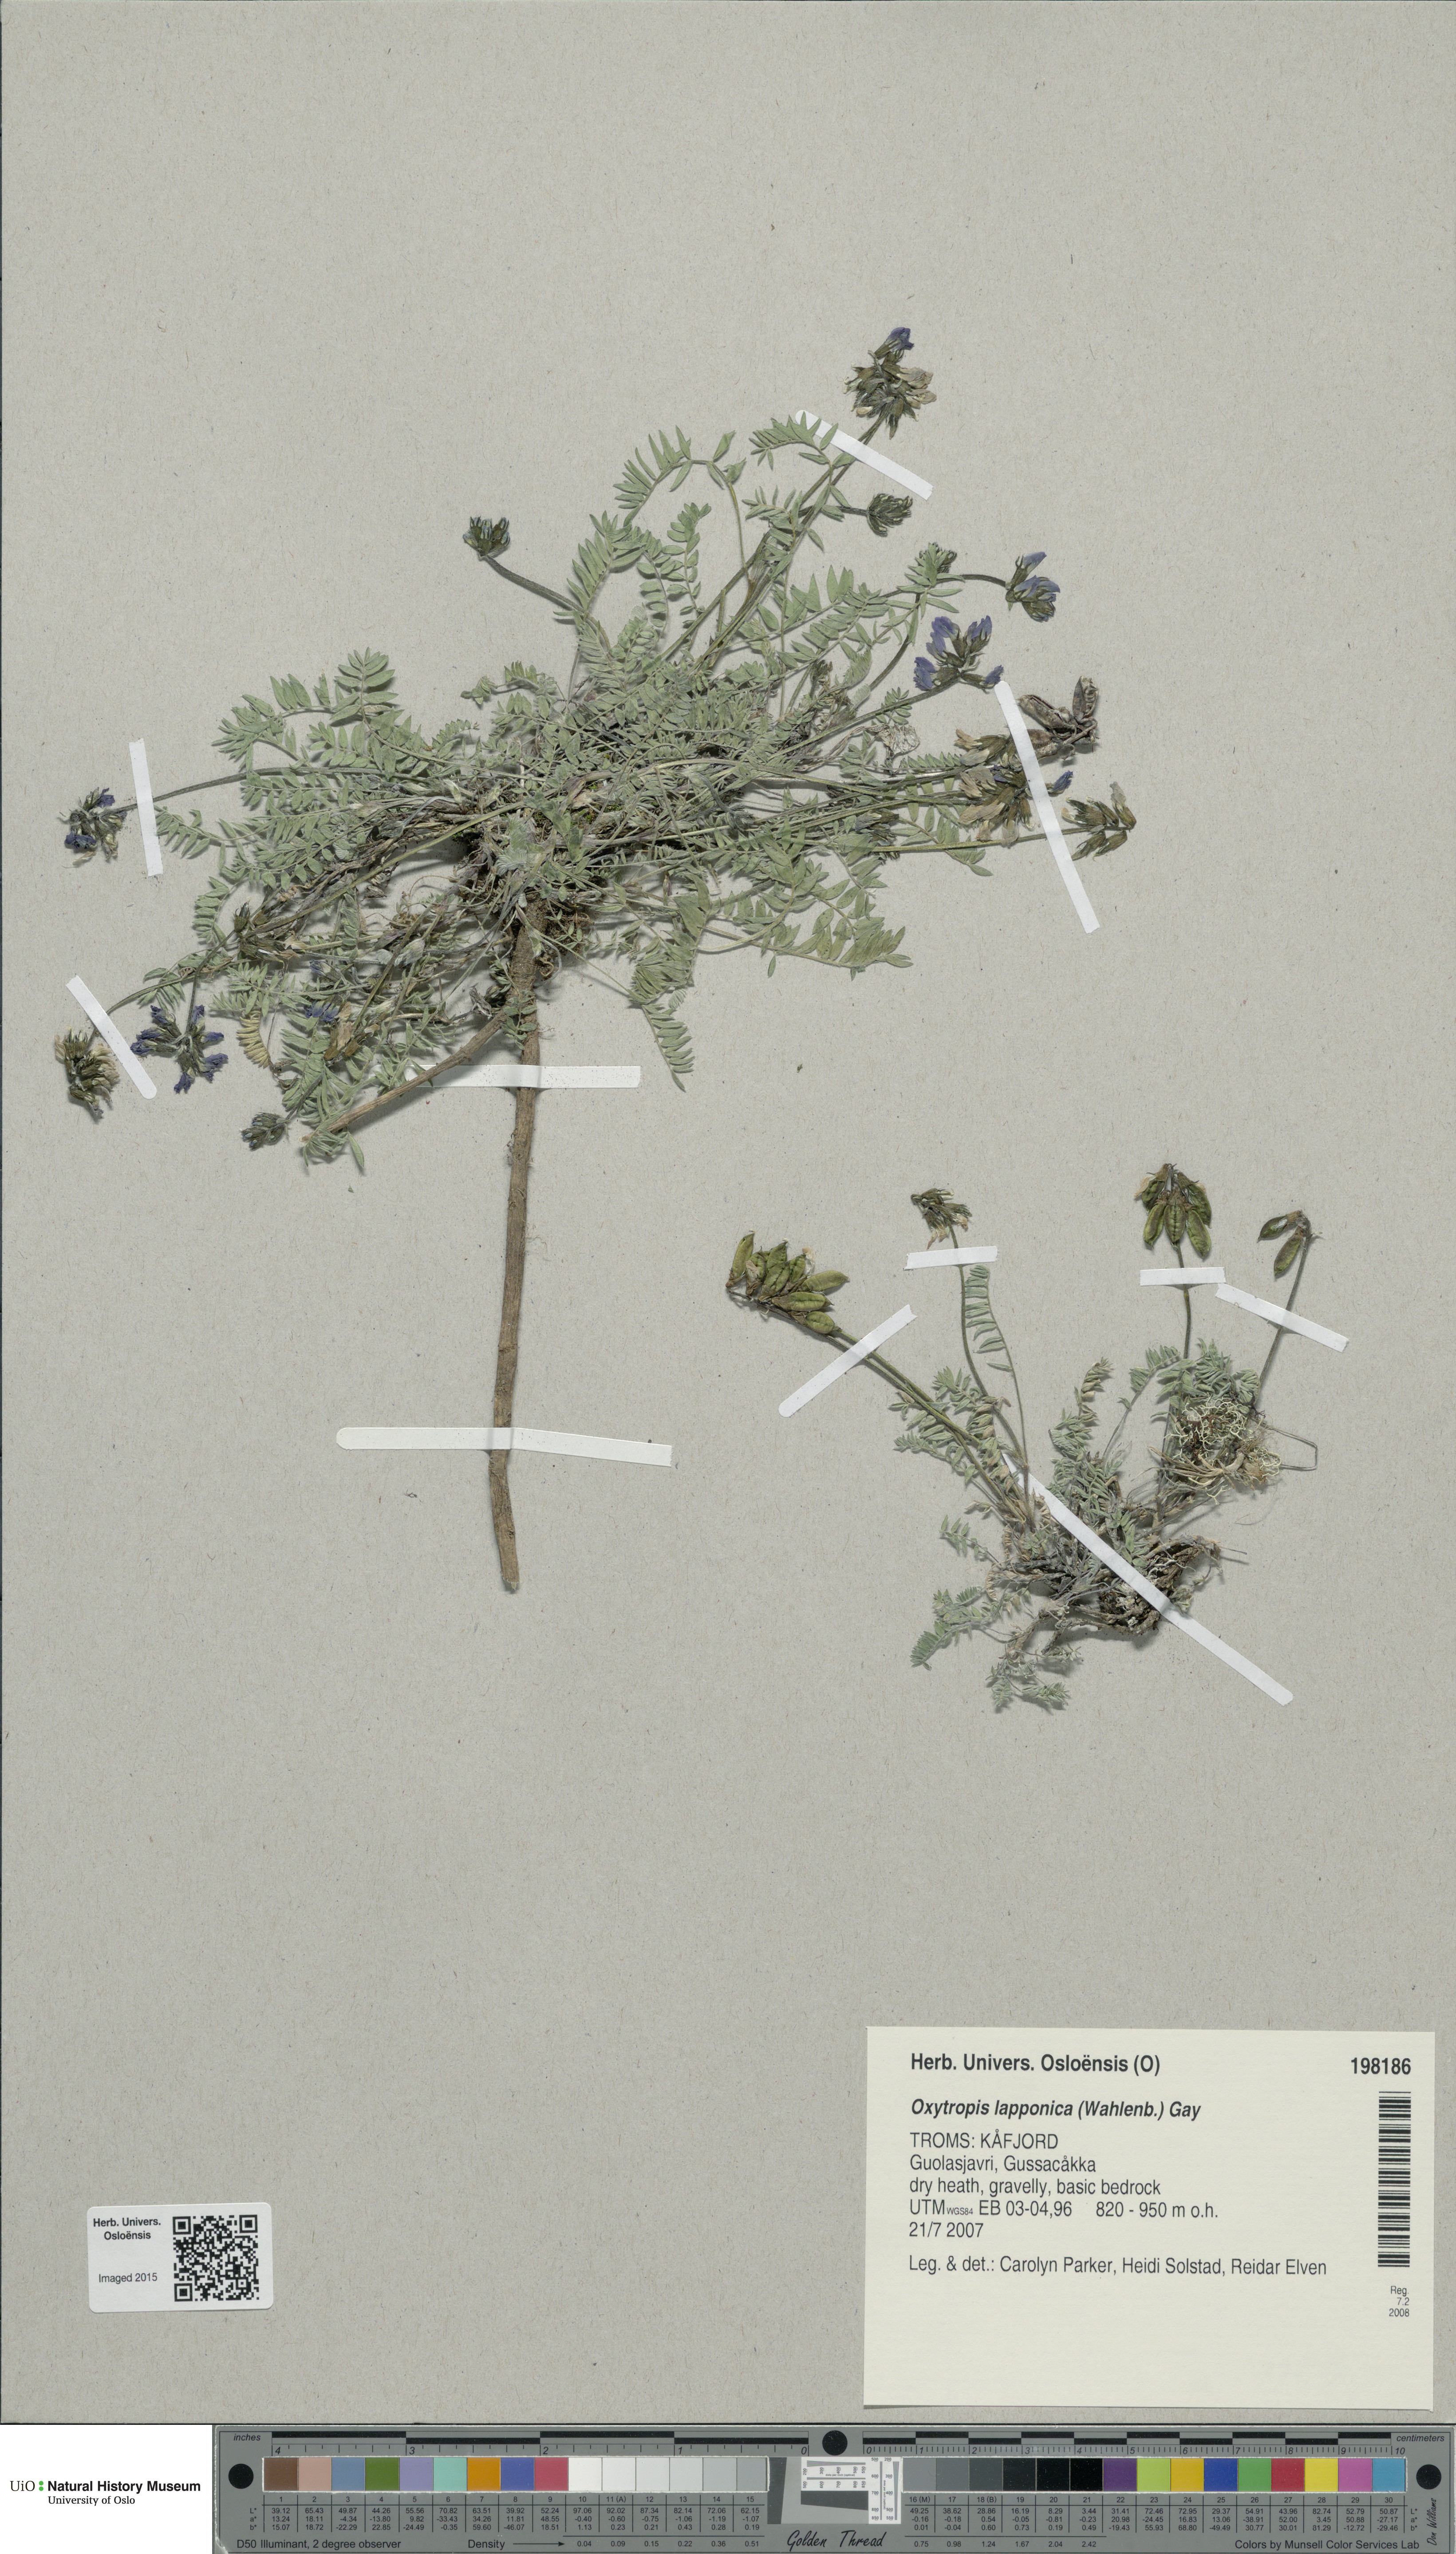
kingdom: Plantae
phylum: Tracheophyta
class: Magnoliopsida
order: Fabales
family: Fabaceae
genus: Oxytropis
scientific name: Oxytropis lapponica
